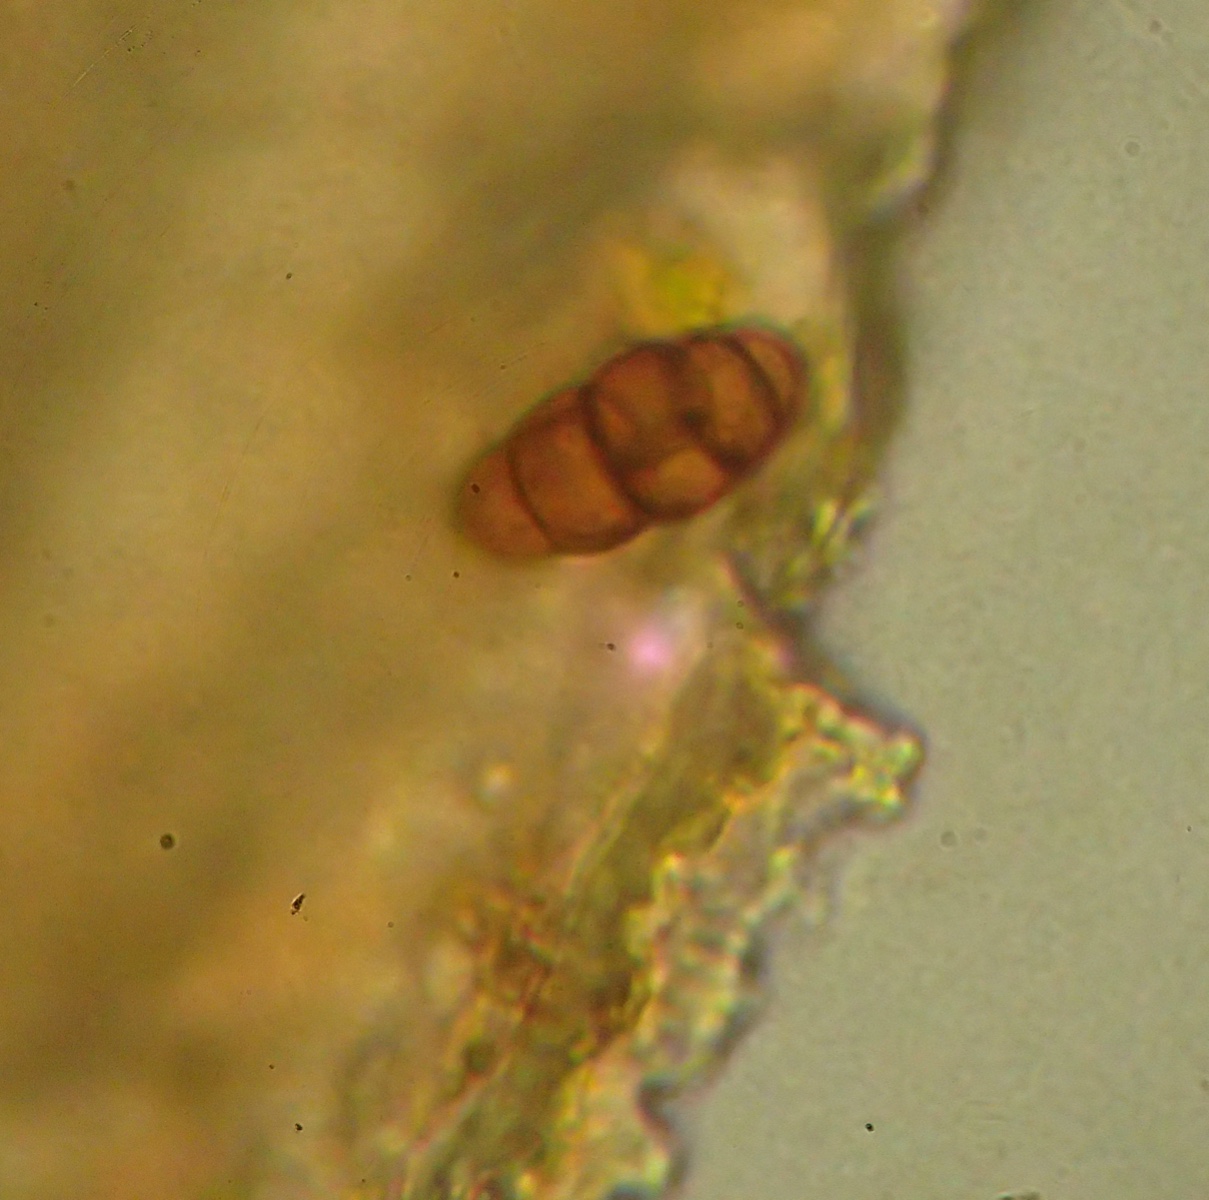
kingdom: Fungi
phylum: Ascomycota
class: Dothideomycetes
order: Mytilinidiales
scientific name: Mytilinidiales
